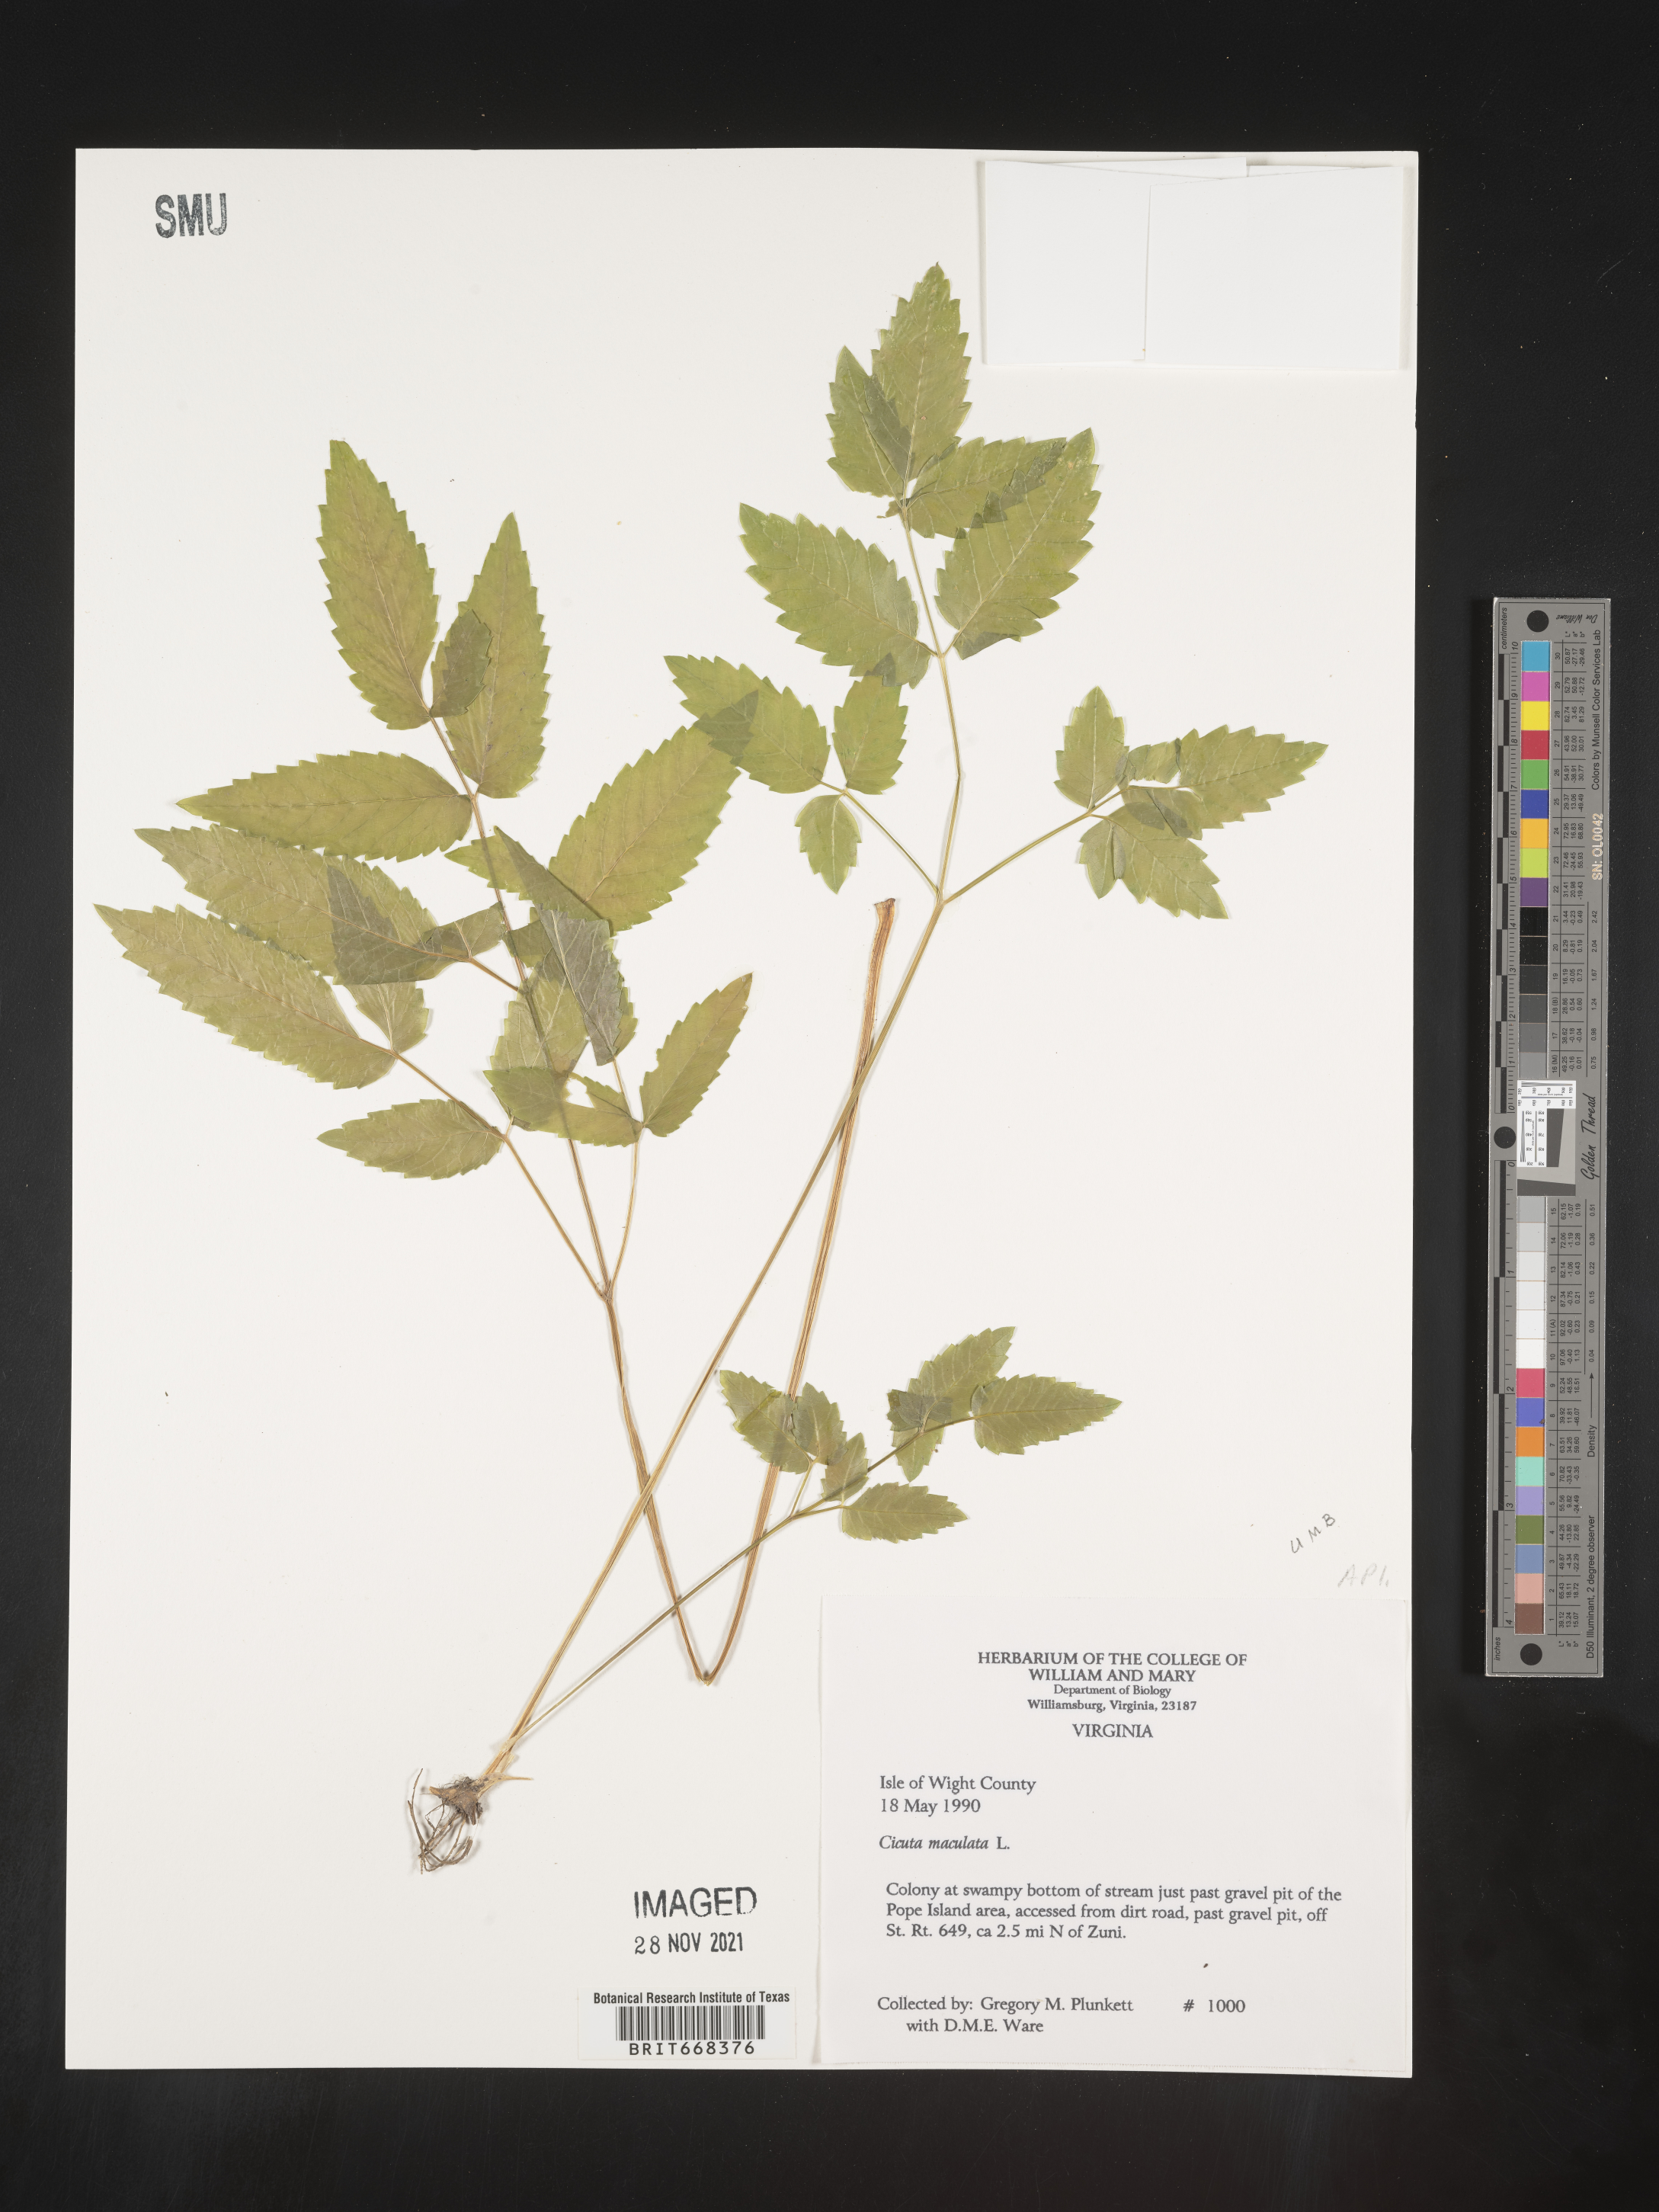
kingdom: Plantae
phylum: Tracheophyta
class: Magnoliopsida
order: Apiales
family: Apiaceae
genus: Cicuta
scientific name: Cicuta maculata
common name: Spotted cowbane
